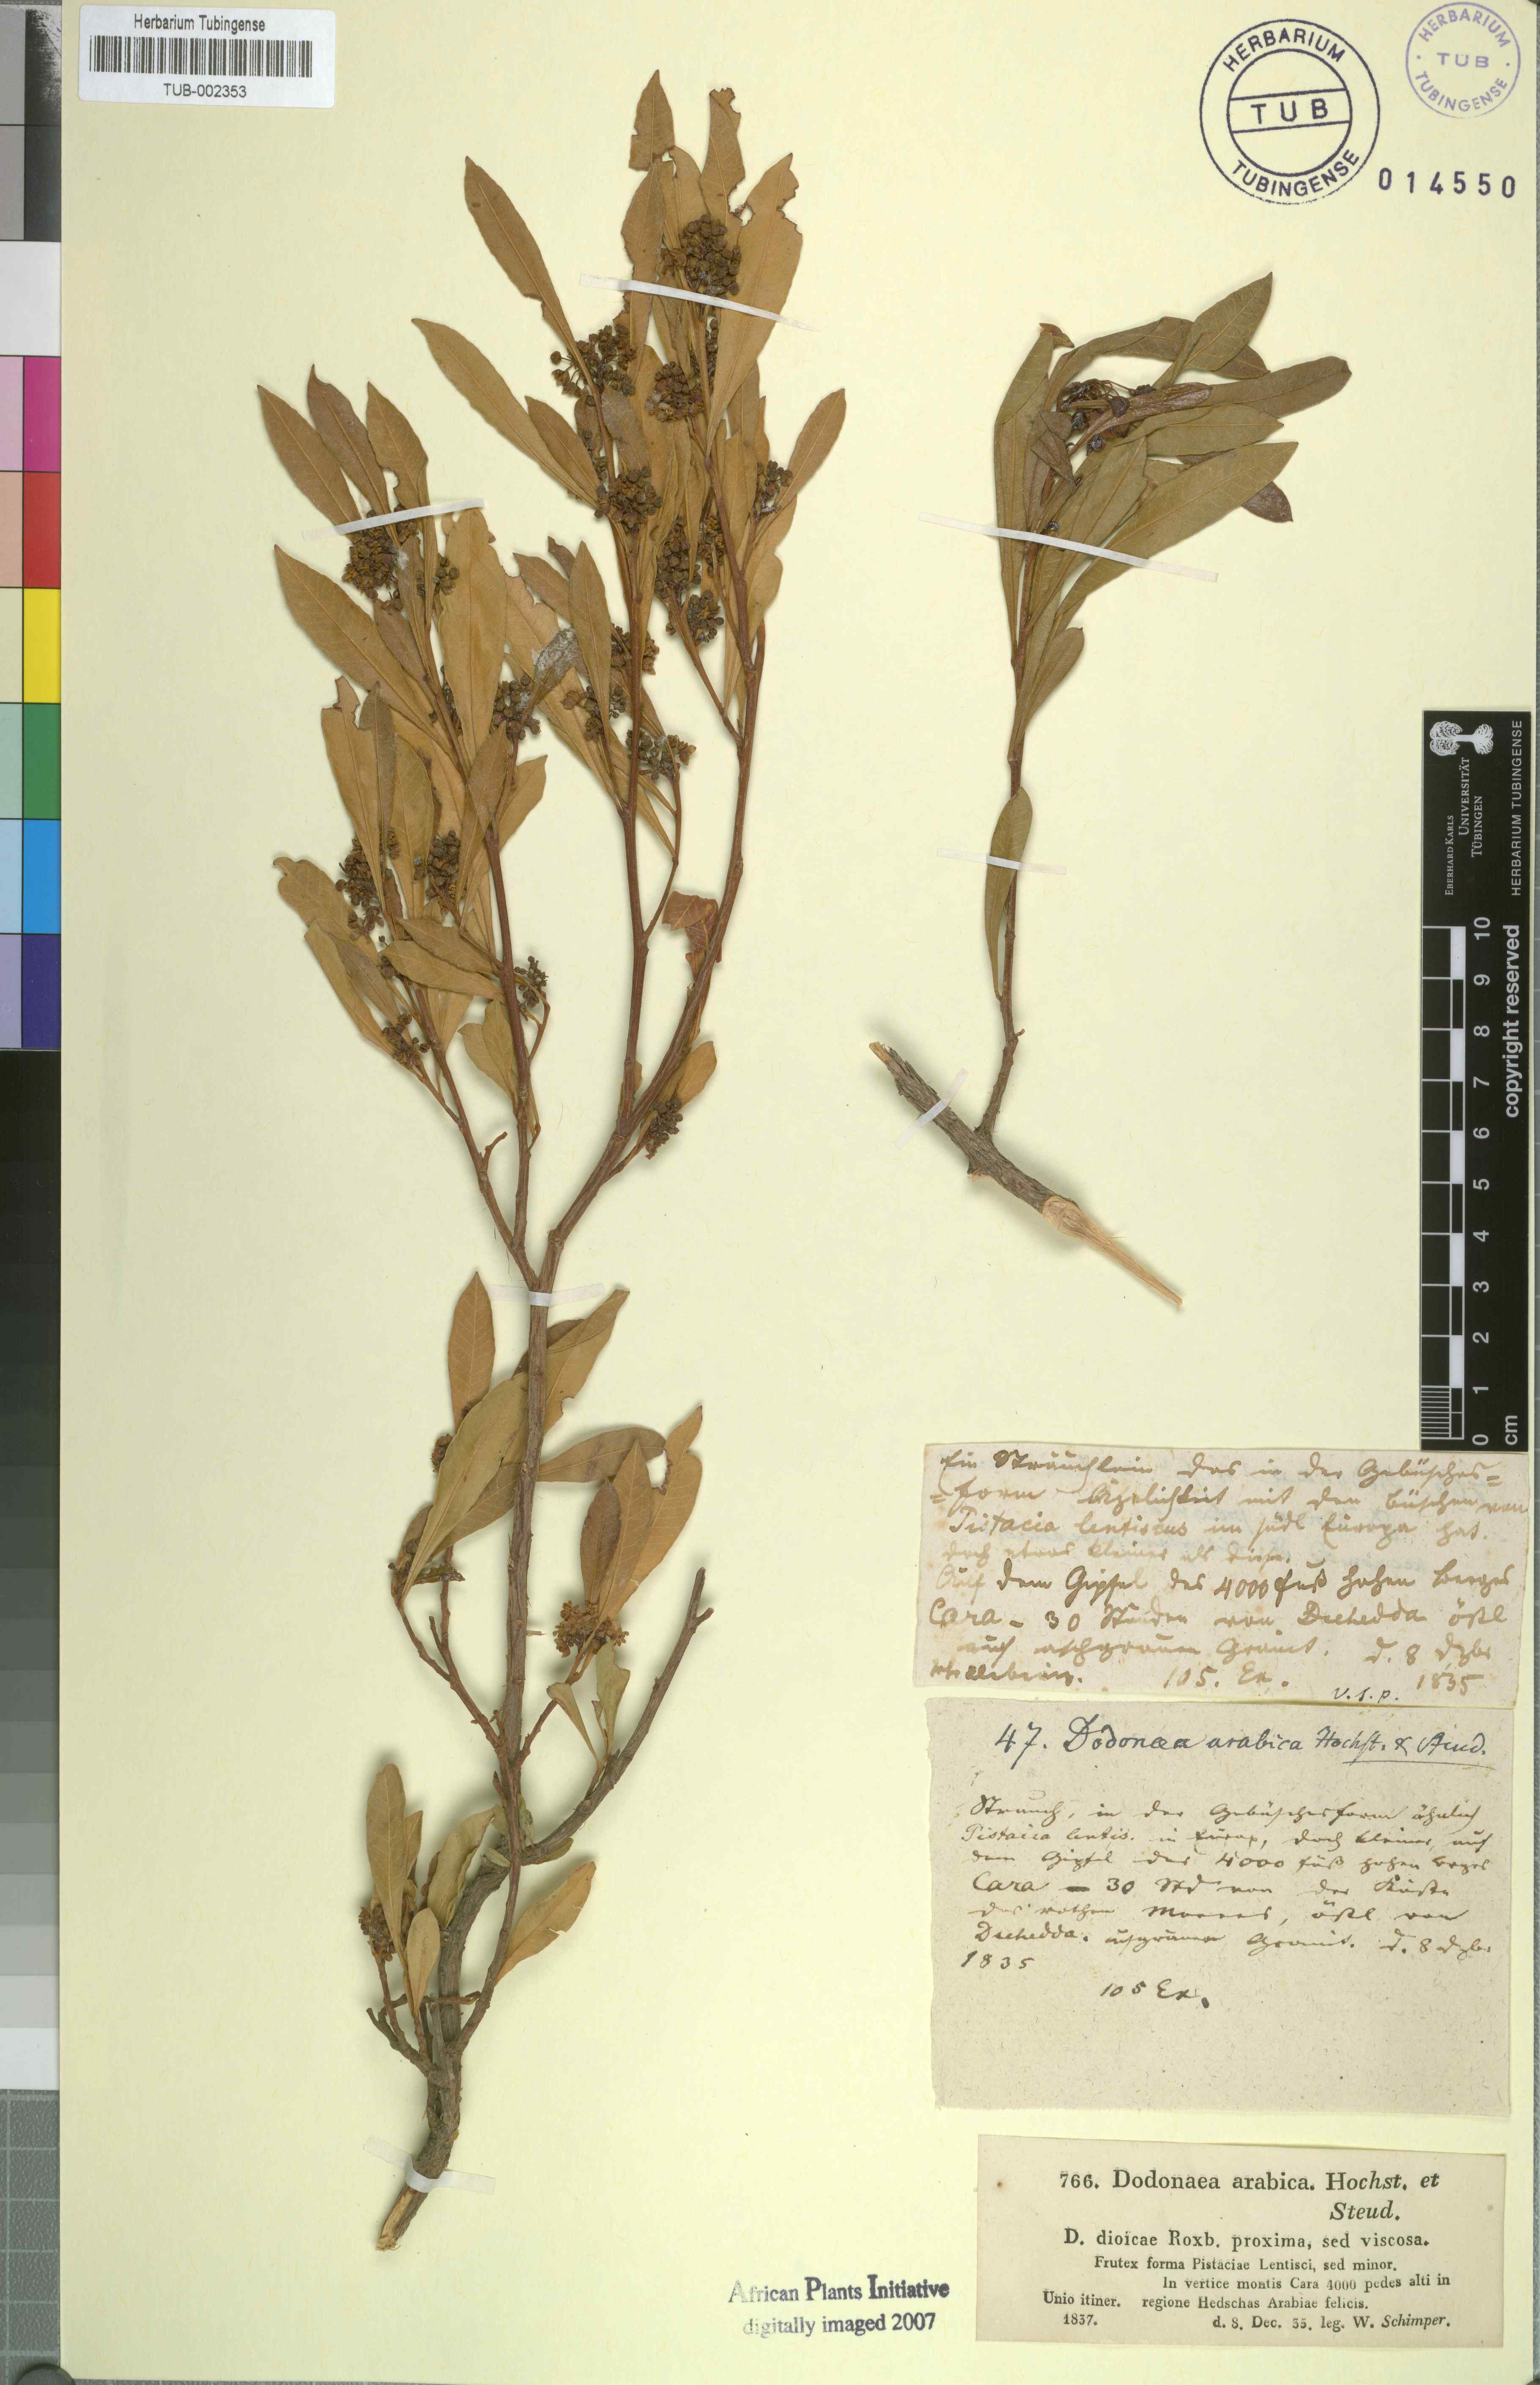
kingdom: Plantae
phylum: Tracheophyta
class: Magnoliopsida
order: Sapindales
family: Sapindaceae
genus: Dodonaea
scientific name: Dodonaea viscosa
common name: Hopbush
